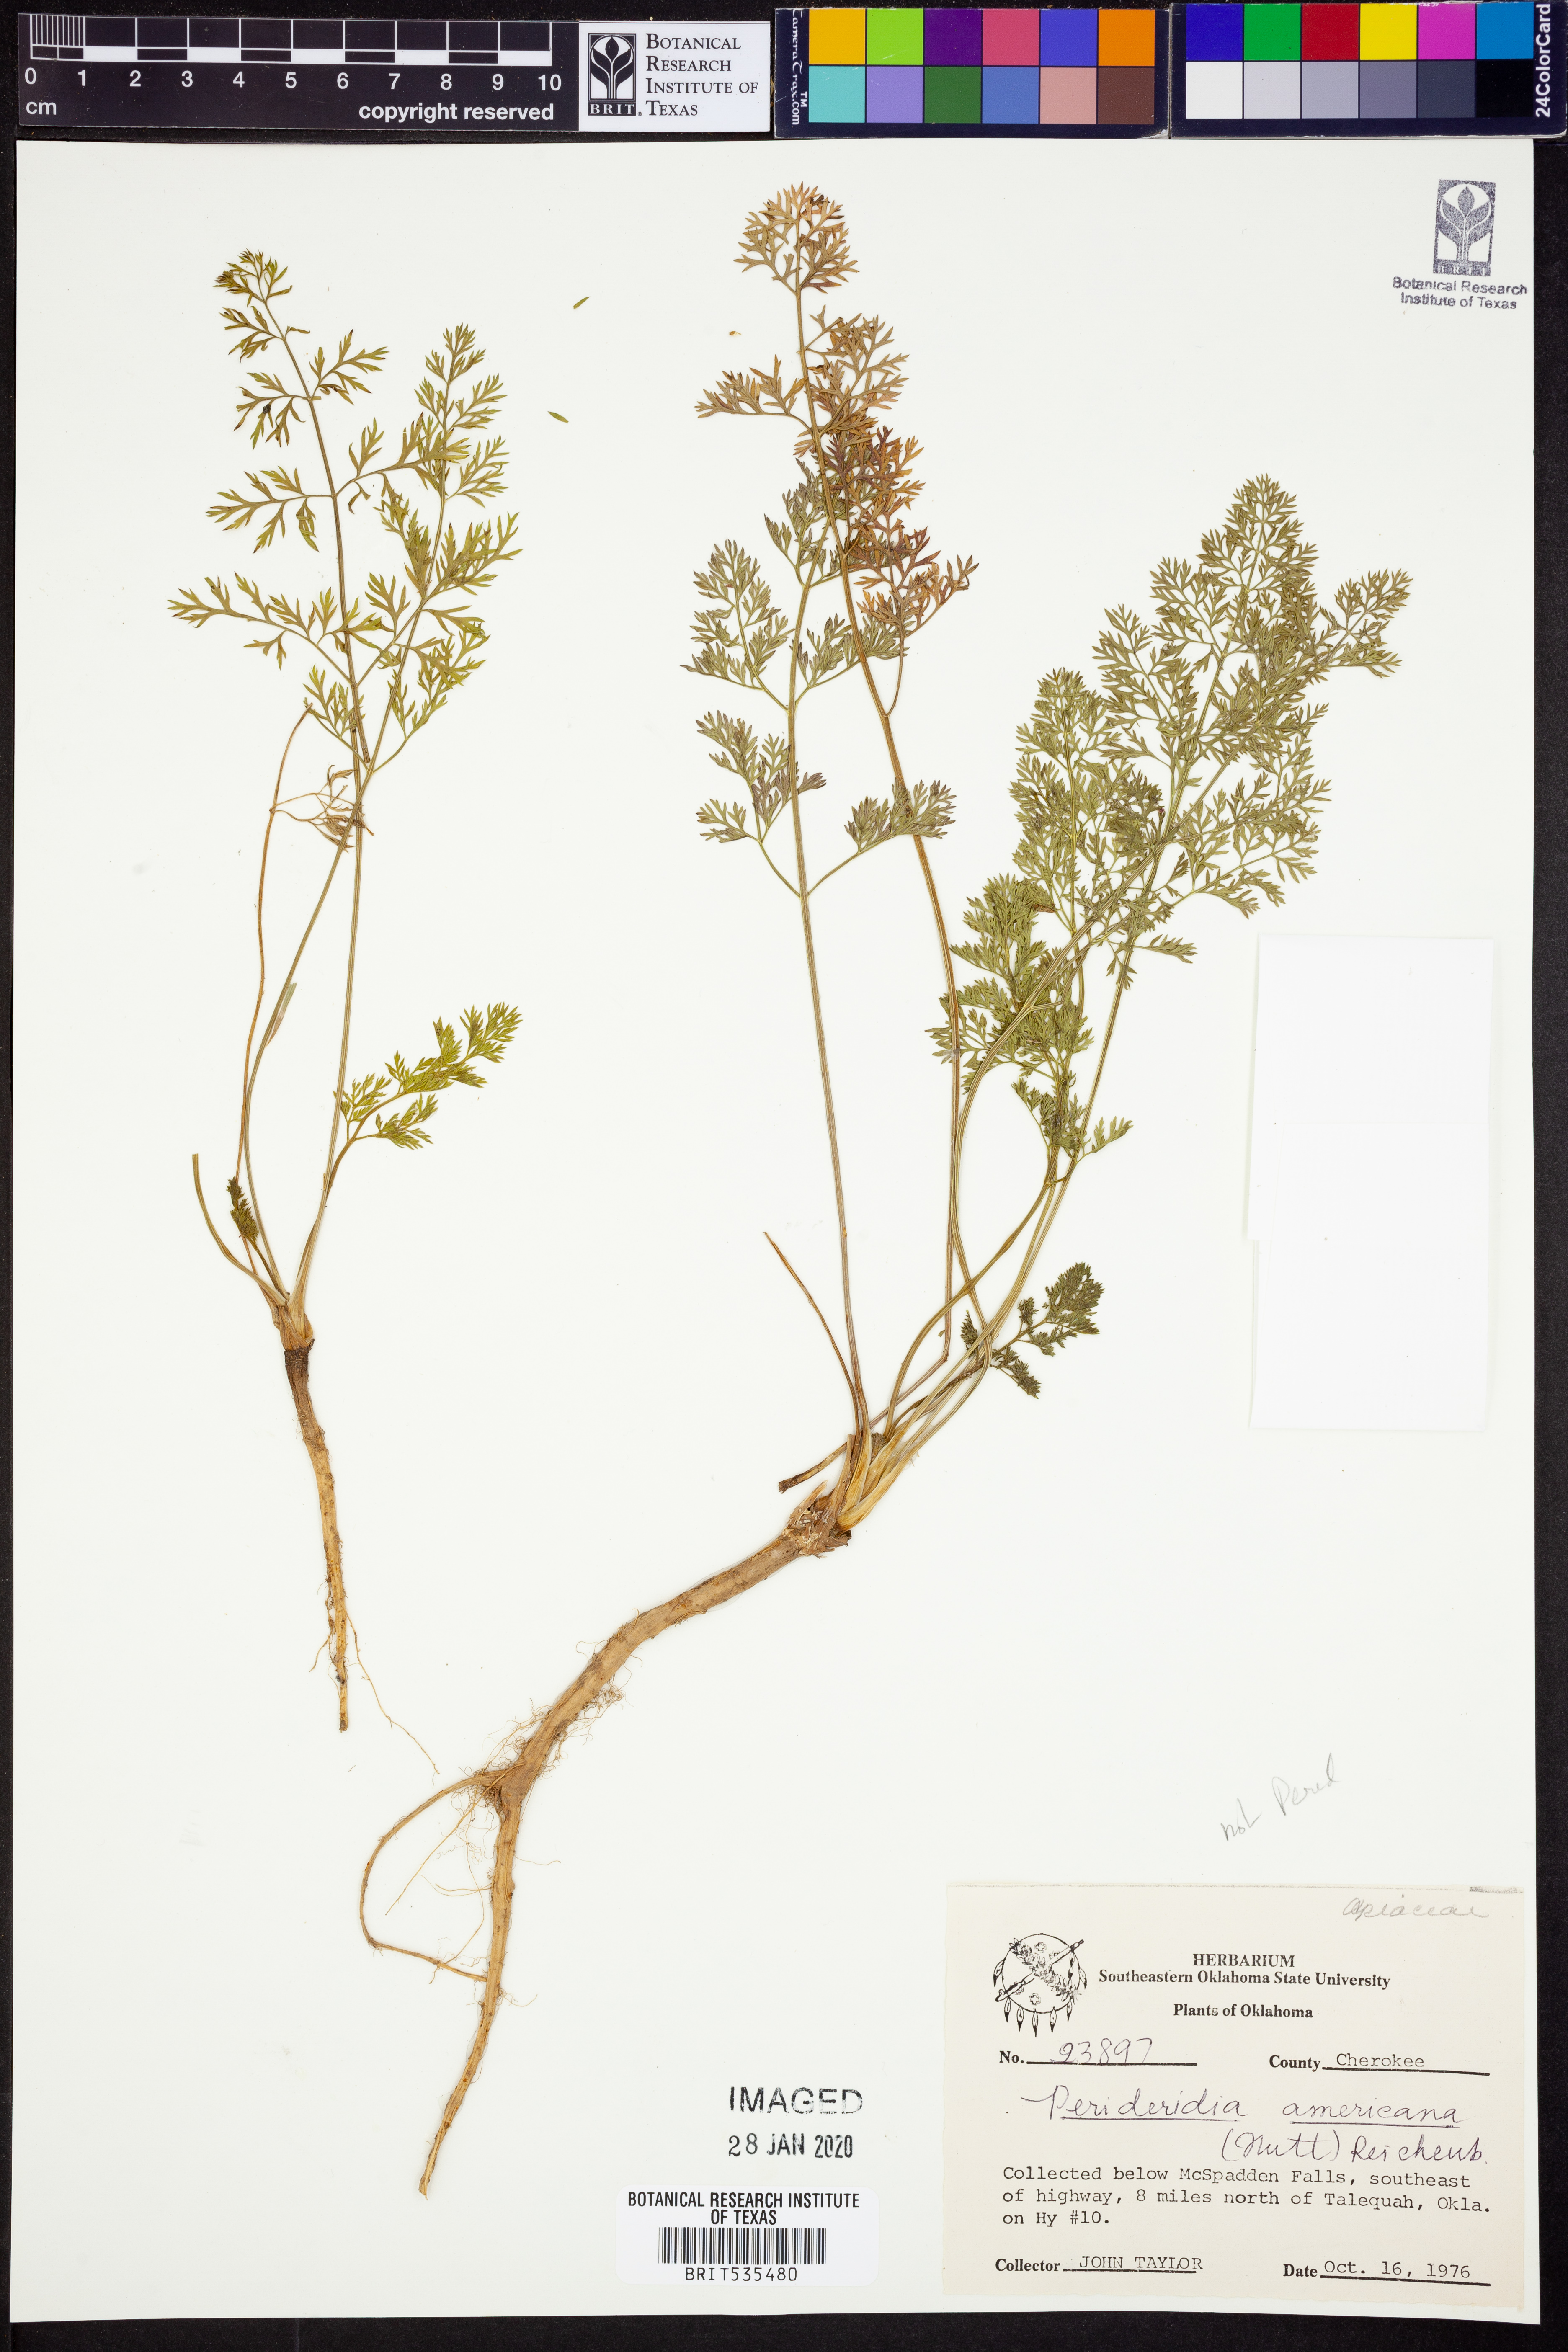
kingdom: Plantae
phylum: Tracheophyta
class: Magnoliopsida
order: Apiales
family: Apiaceae
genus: Perideridia
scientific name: Perideridia americana
